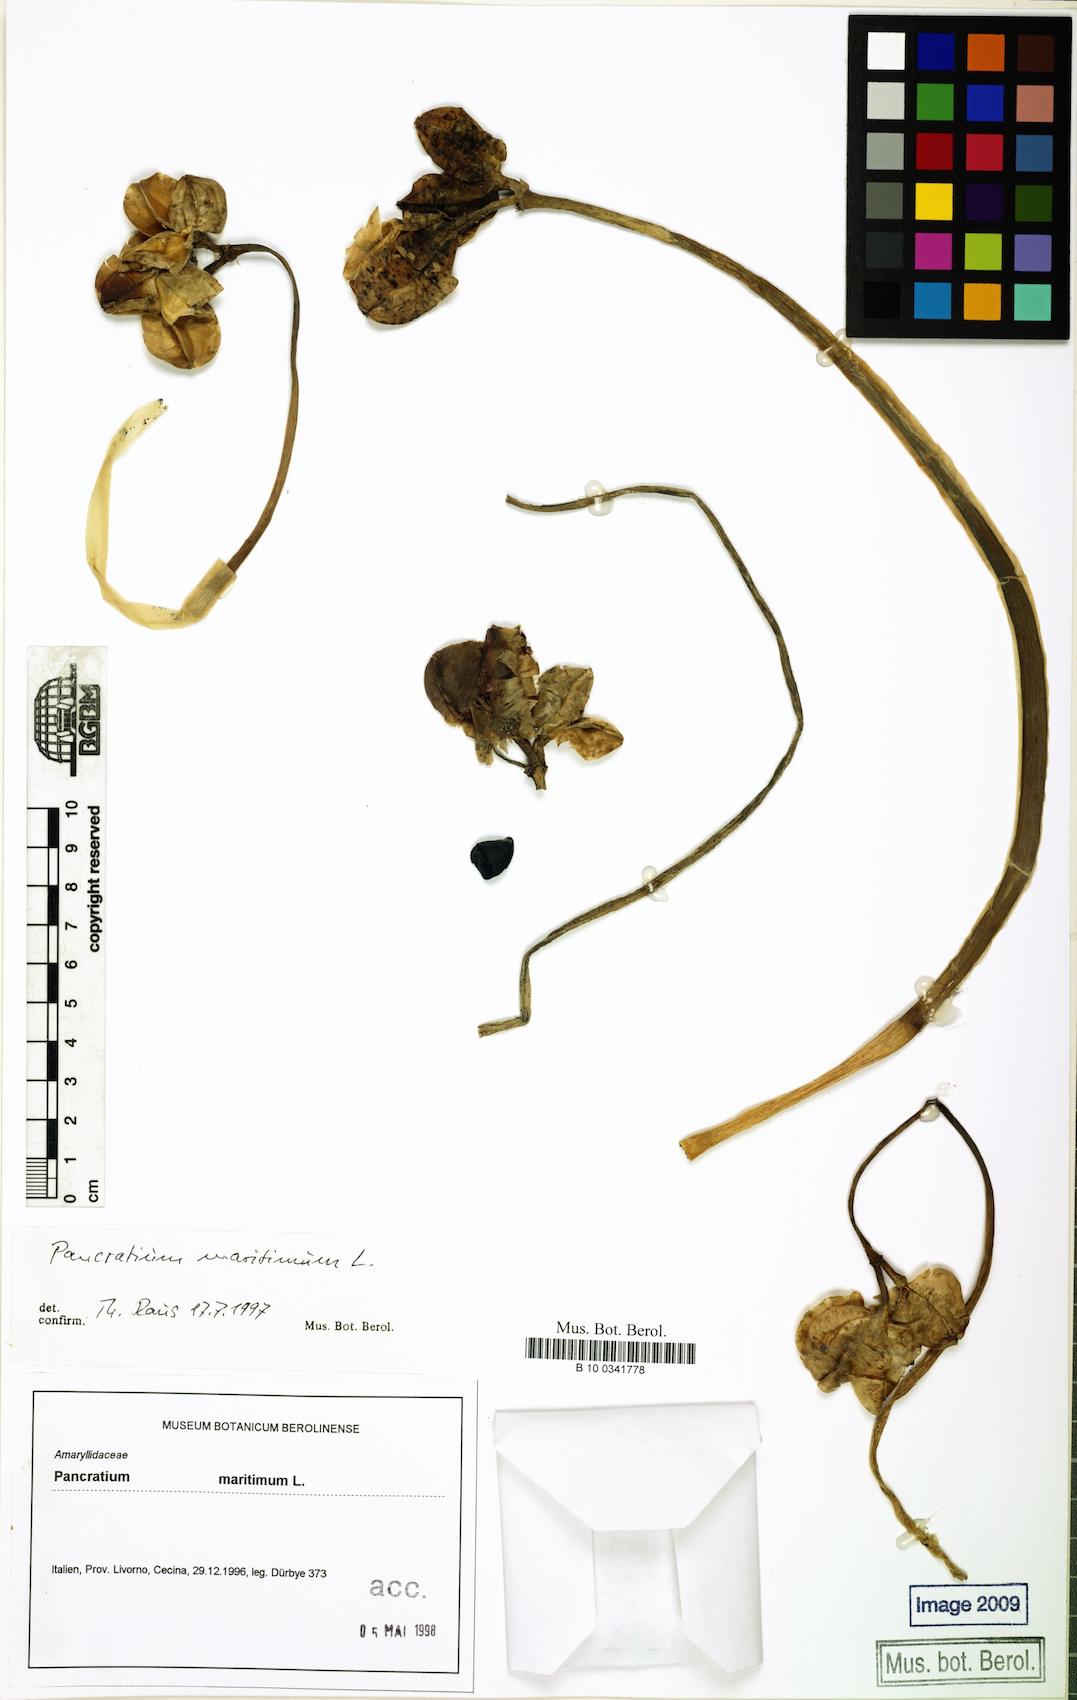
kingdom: Plantae
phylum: Tracheophyta
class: Liliopsida
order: Asparagales
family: Amaryllidaceae
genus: Pancratium
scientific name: Pancratium maritimum
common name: Sea-daffodil
